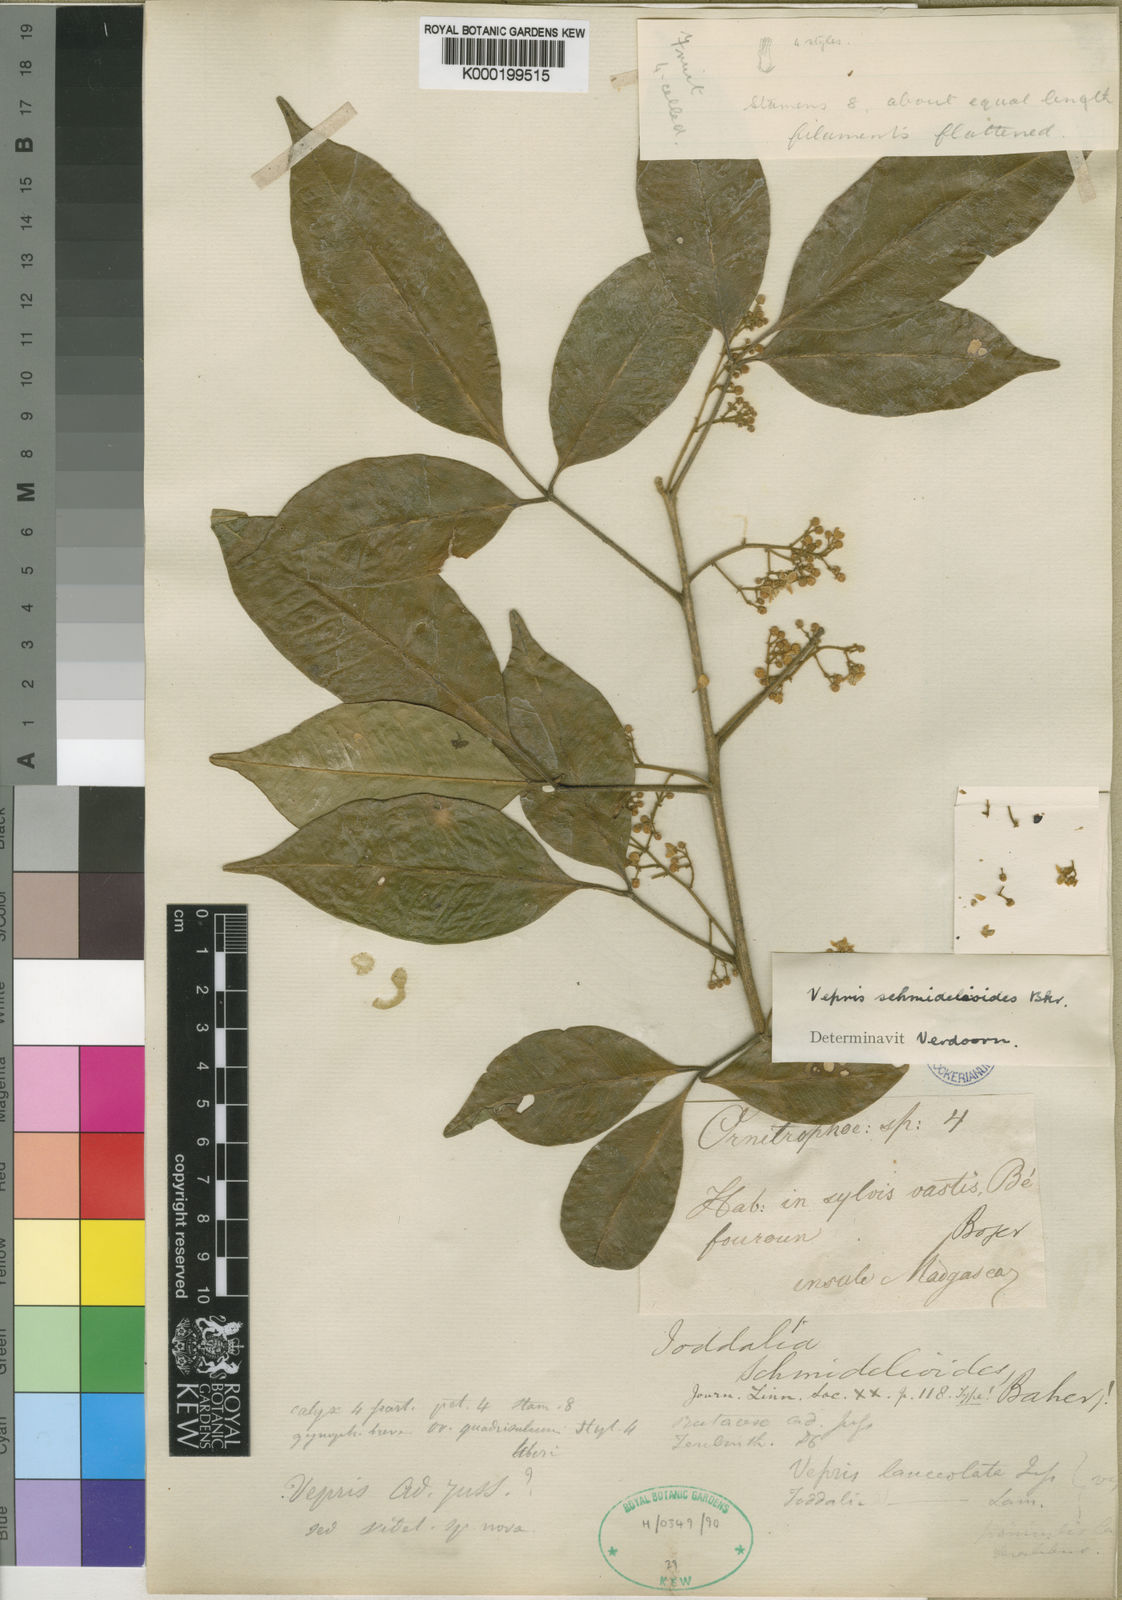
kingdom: Plantae
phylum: Tracheophyta
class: Magnoliopsida
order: Sapindales
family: Rutaceae
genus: Vepris
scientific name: Vepris
